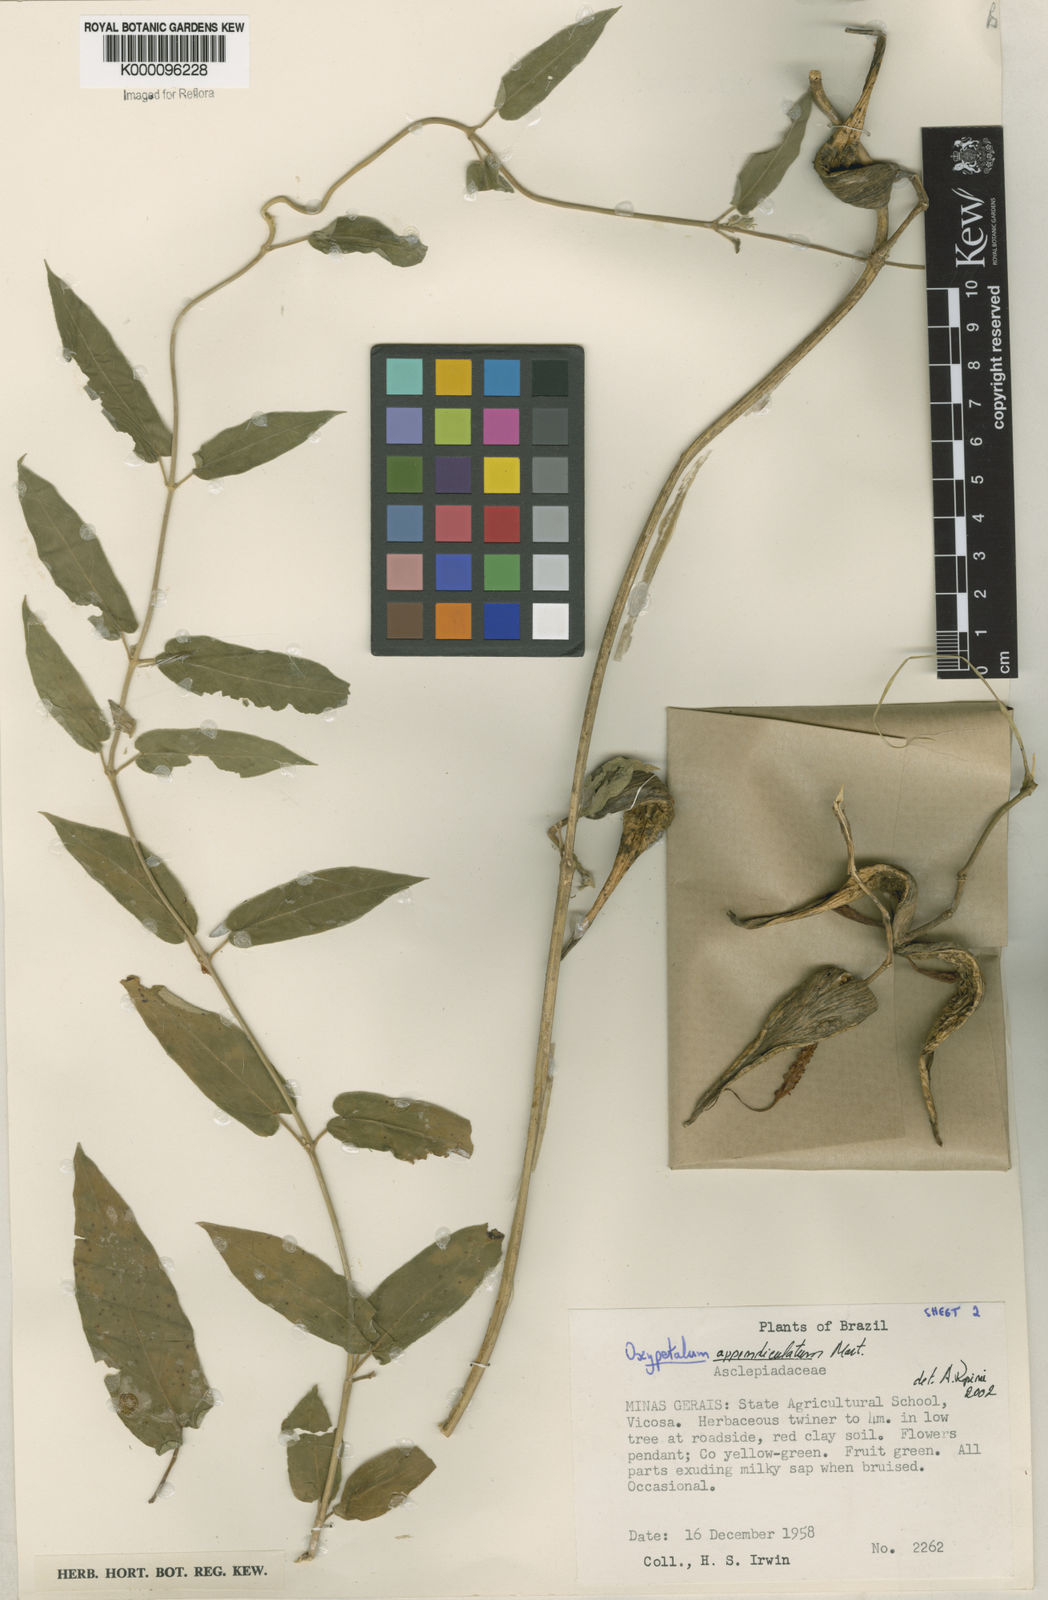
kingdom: Plantae
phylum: Tracheophyta
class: Magnoliopsida
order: Gentianales
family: Apocynaceae
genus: Oxypetalum
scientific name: Oxypetalum appendiculatum
